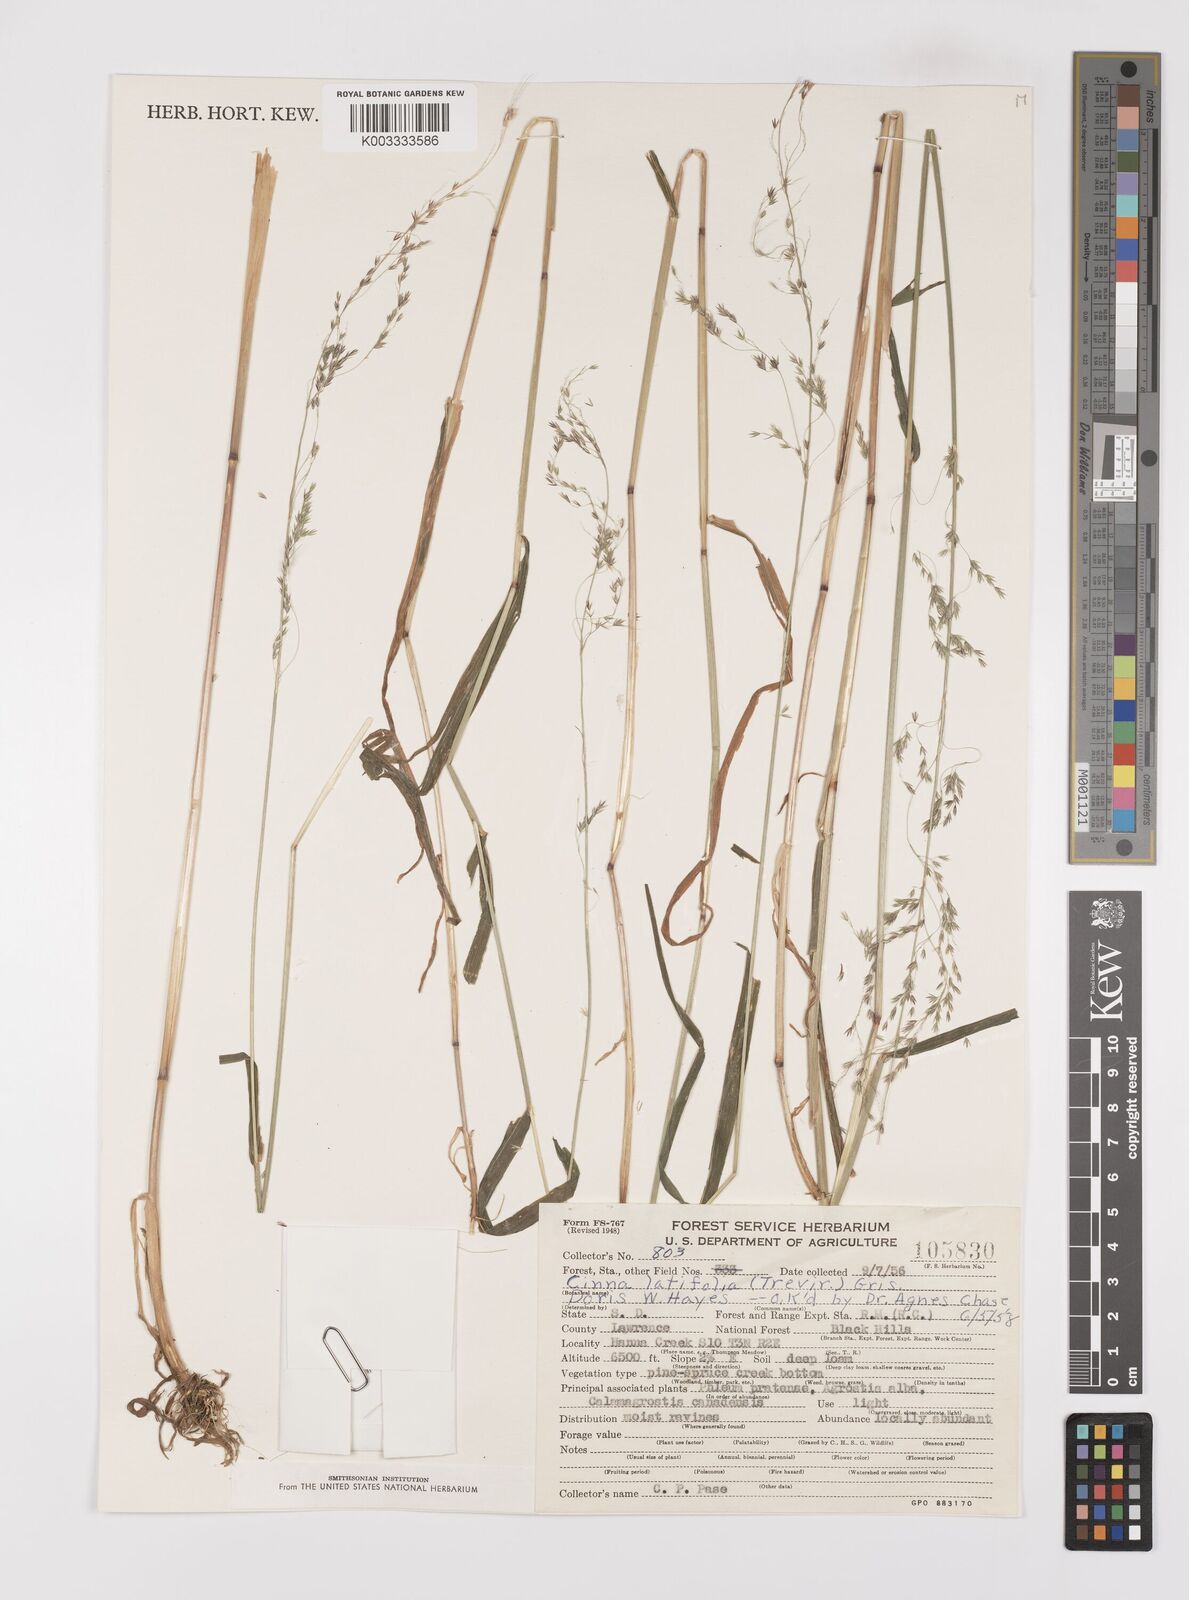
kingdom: Plantae
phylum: Tracheophyta
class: Liliopsida
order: Poales
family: Poaceae
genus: Cinna
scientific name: Cinna latifolia
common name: Drooping woodreed
